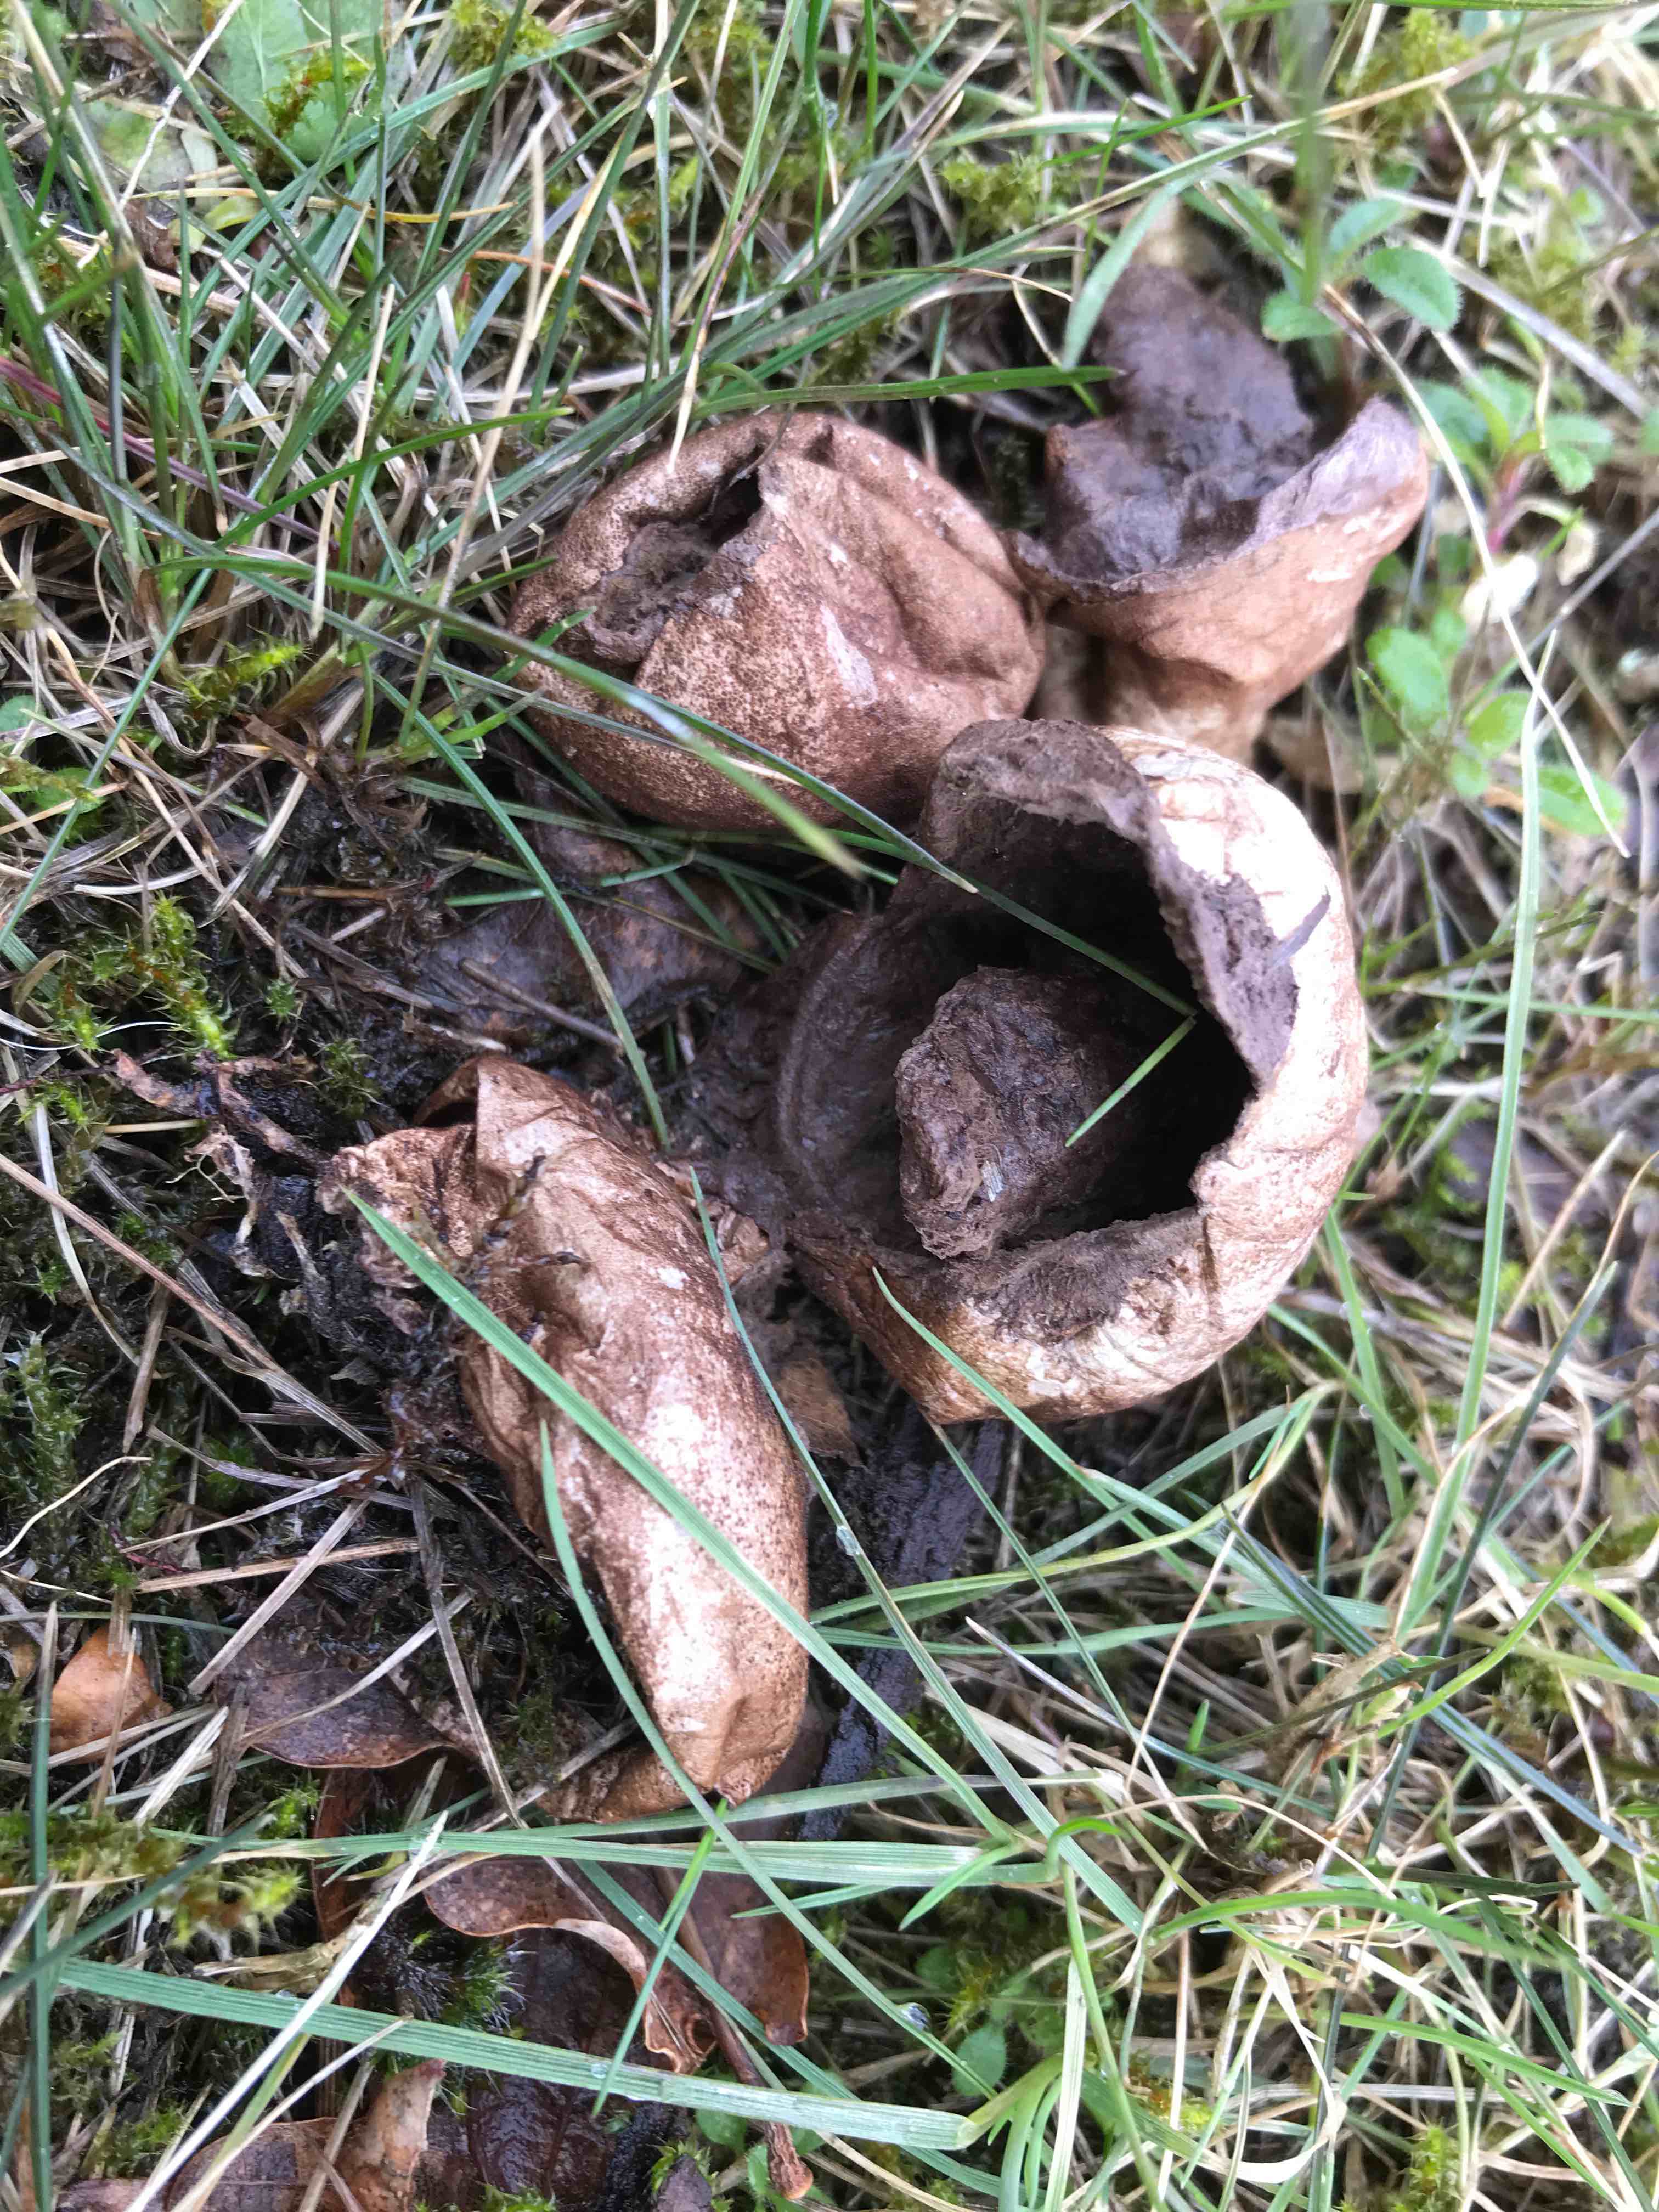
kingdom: Fungi
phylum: Basidiomycota
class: Agaricomycetes
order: Agaricales
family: Agaricaceae
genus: Lycoperdon
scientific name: Lycoperdon
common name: støvbold
